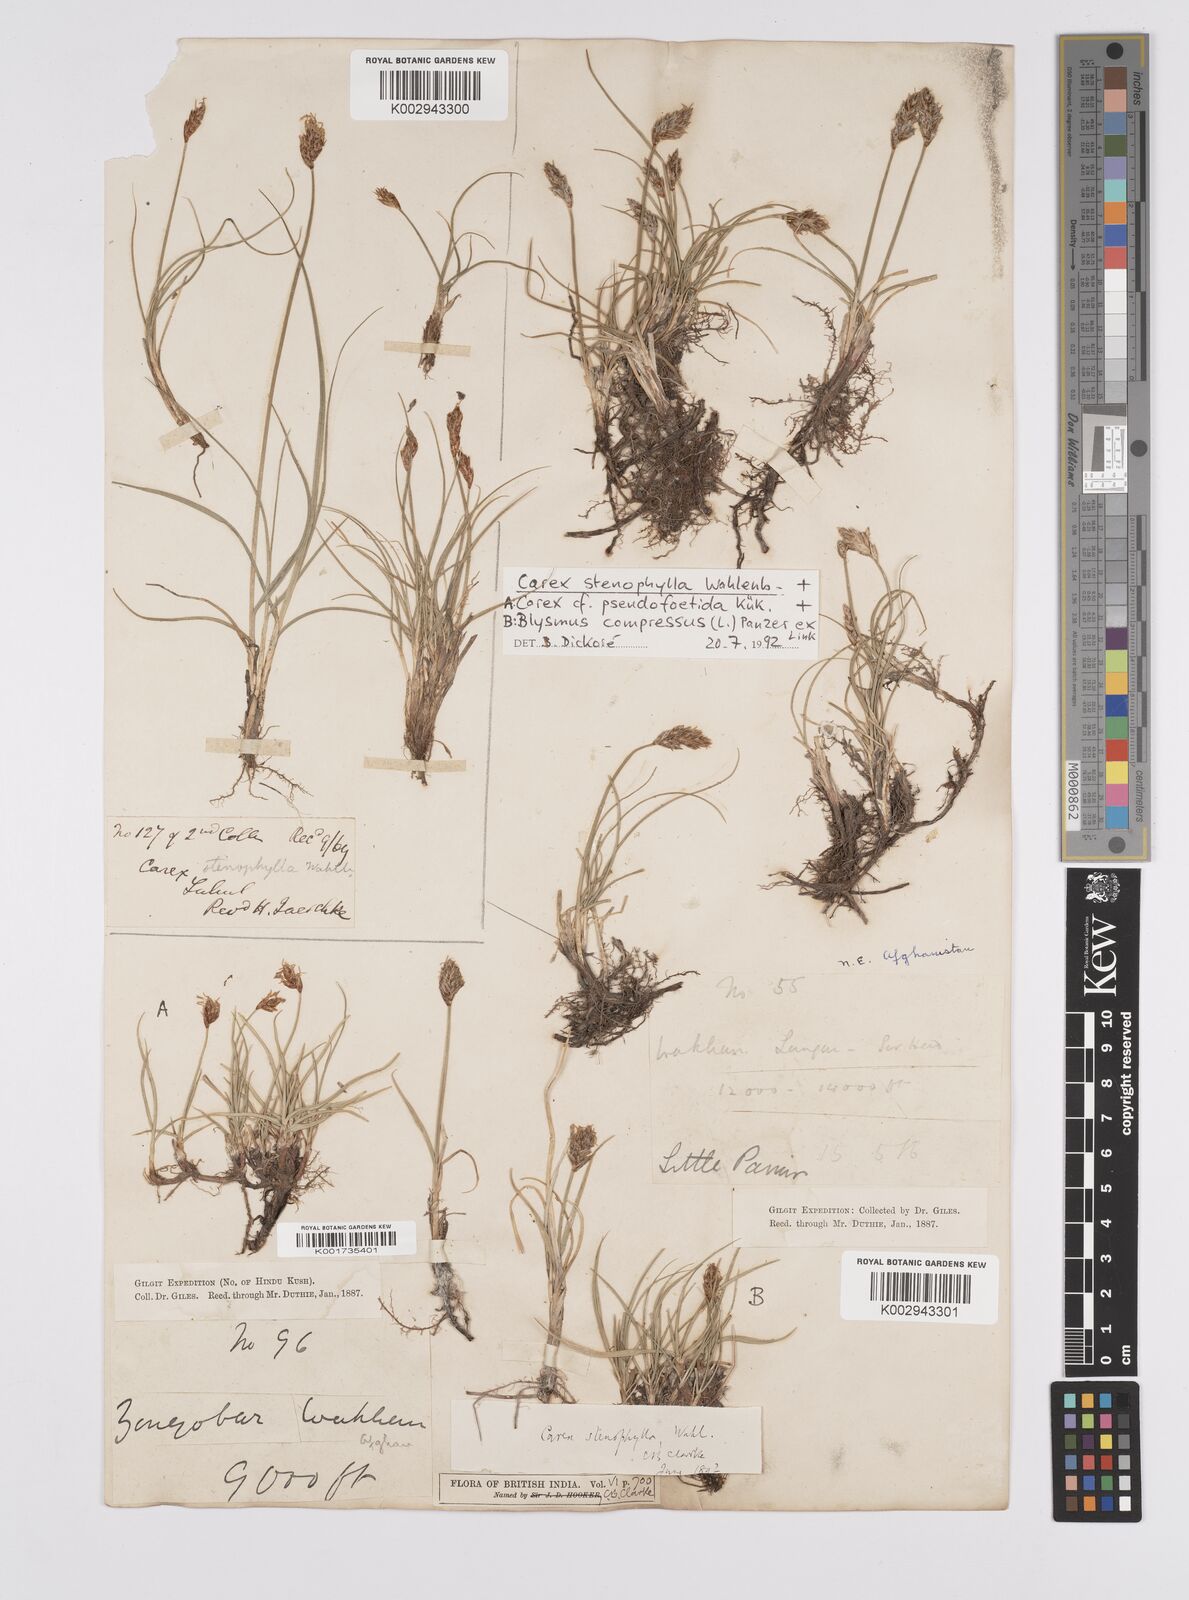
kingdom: Plantae
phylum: Tracheophyta
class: Liliopsida
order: Poales
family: Cyperaceae
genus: Carex
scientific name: Carex stenophylla
